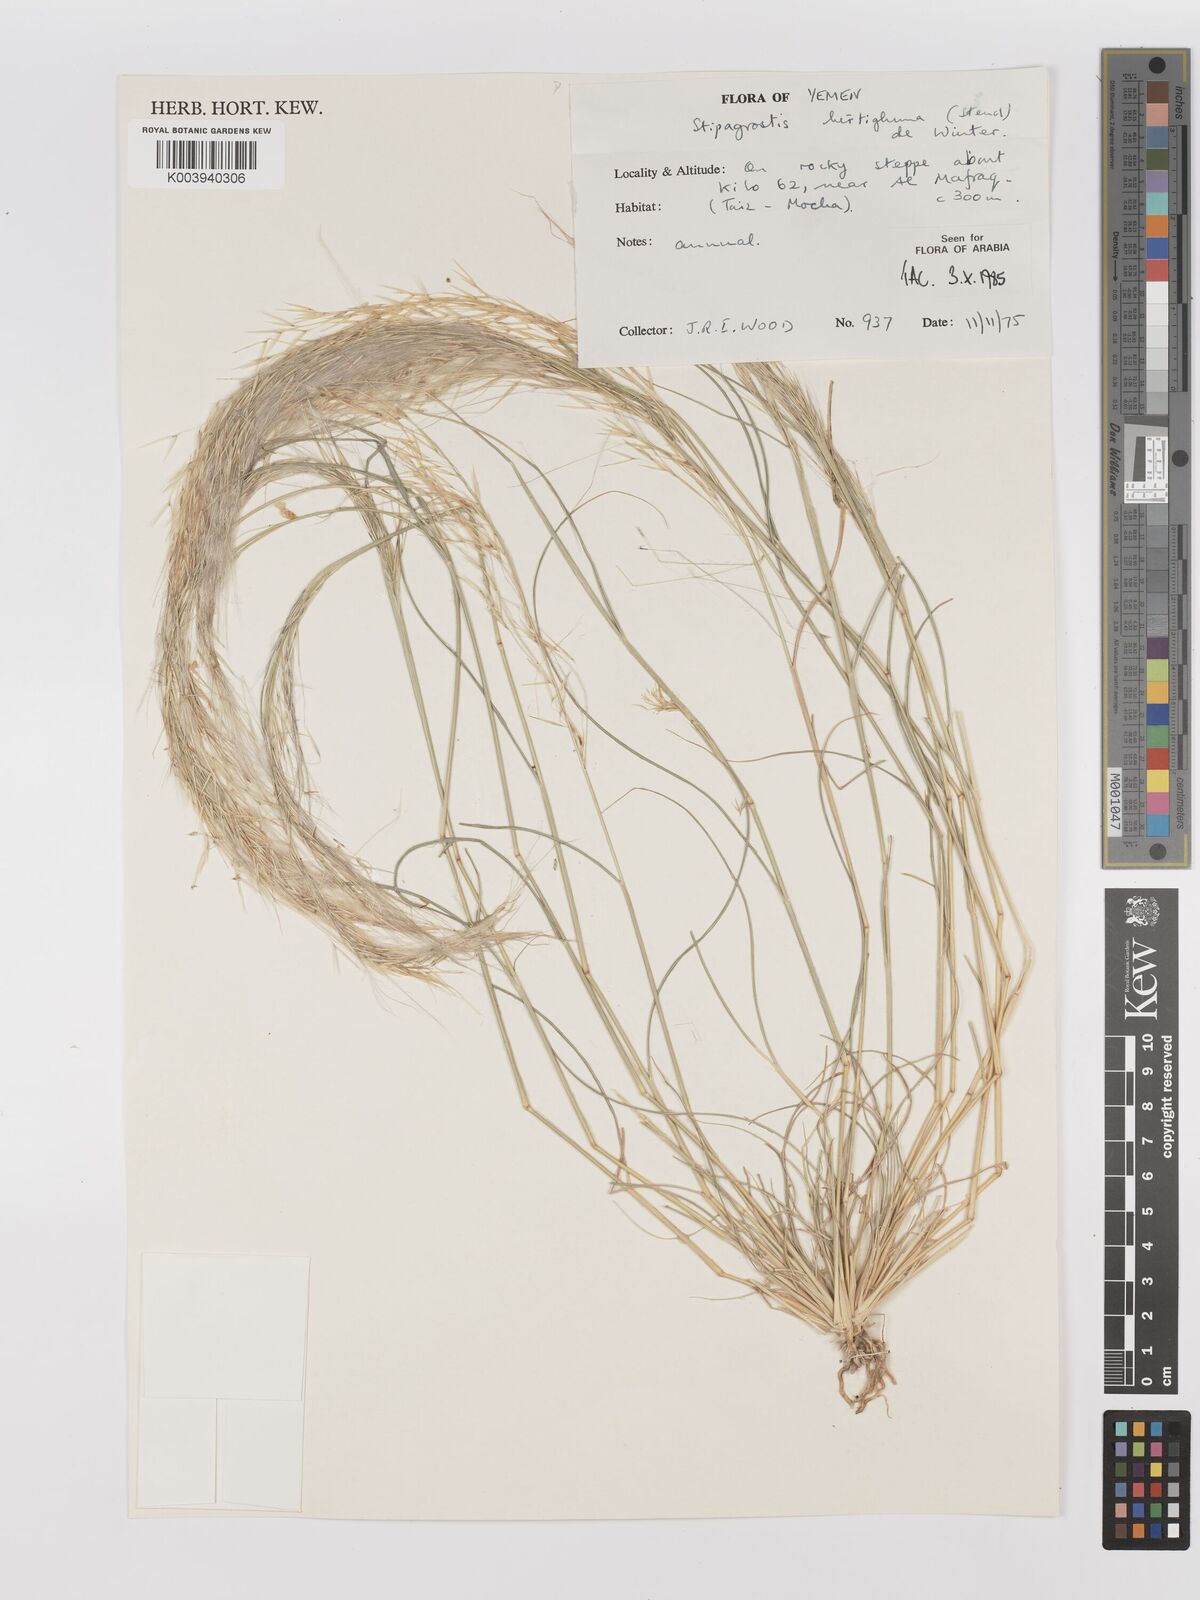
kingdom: Plantae
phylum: Tracheophyta
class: Liliopsida
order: Poales
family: Poaceae
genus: Stipagrostis
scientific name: Stipagrostis hirtigluma
